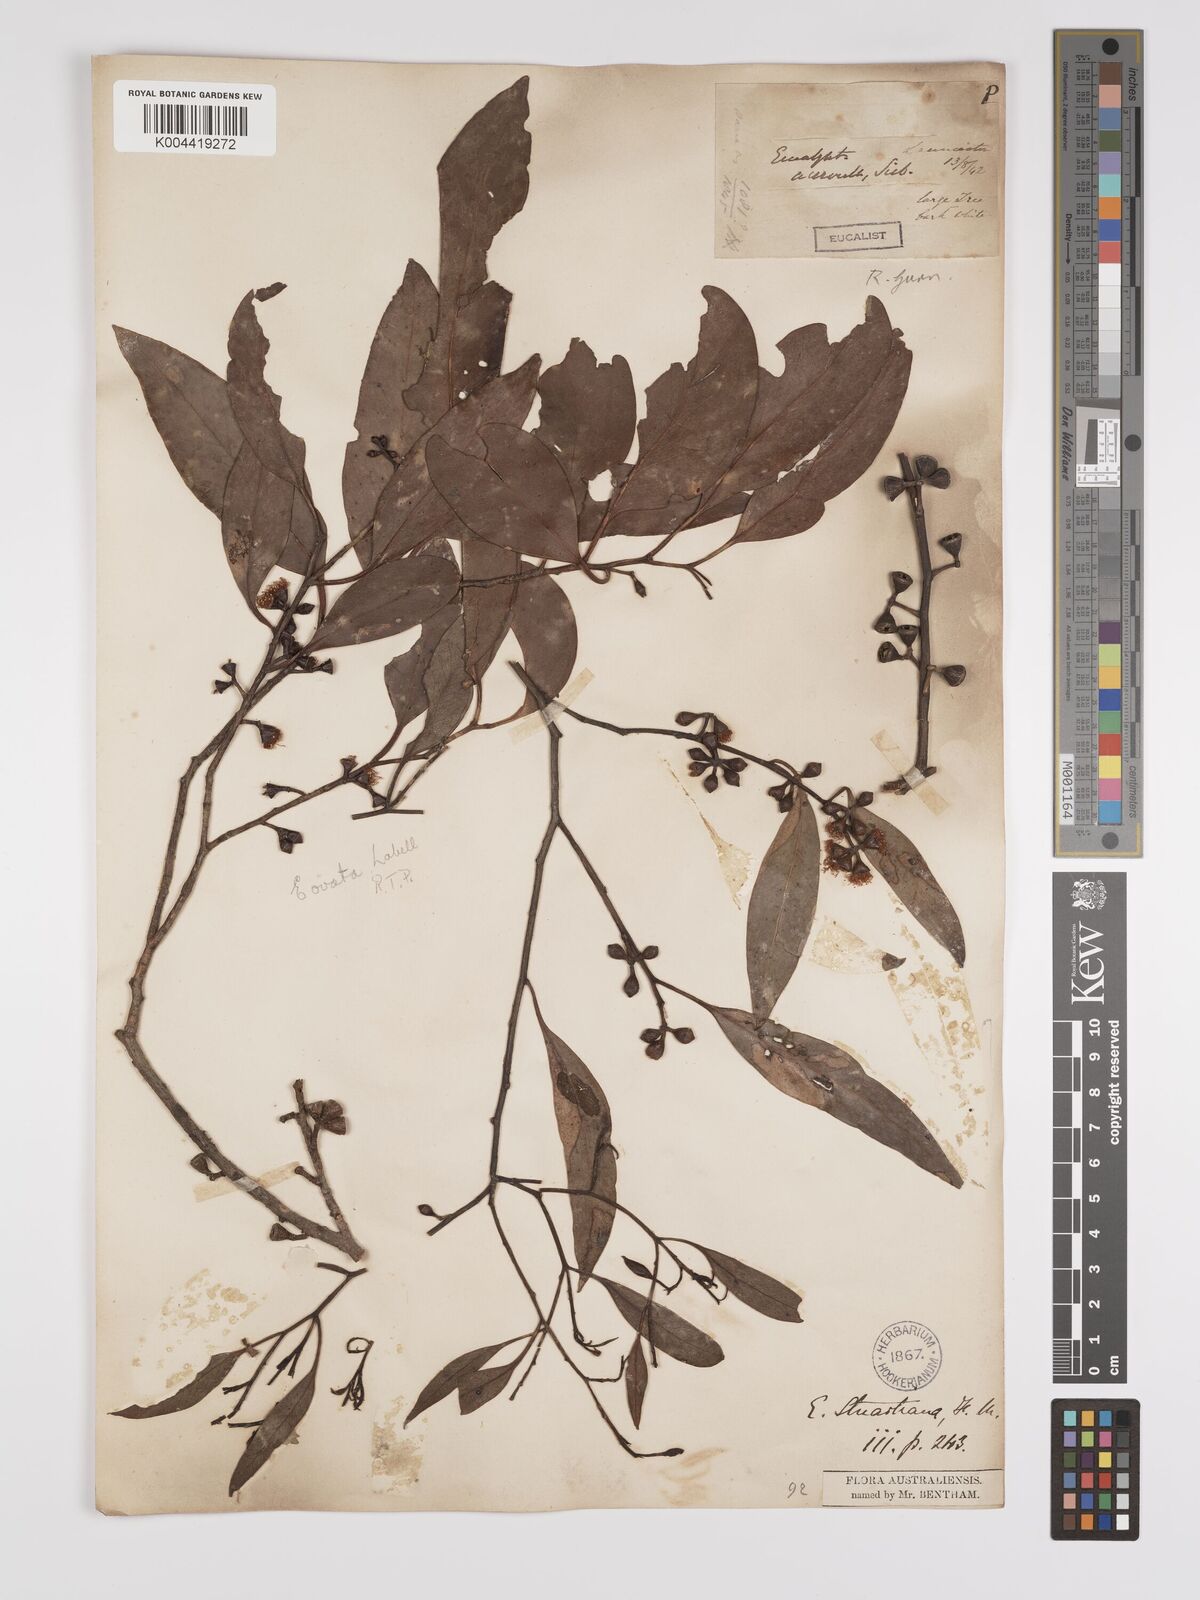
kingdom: Plantae
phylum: Tracheophyta
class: Magnoliopsida
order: Myrtales
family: Myrtaceae
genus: Eucalyptus
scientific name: Eucalyptus ovata
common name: Black-gum
